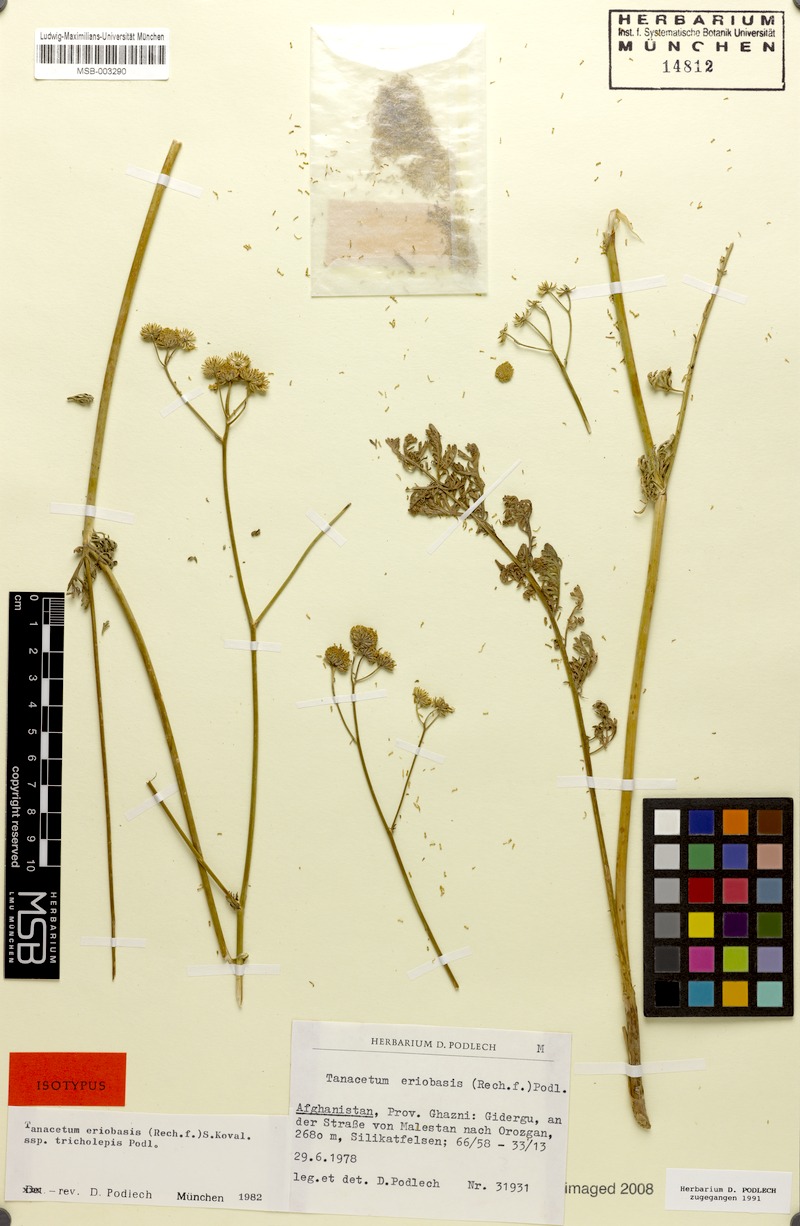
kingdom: Plantae
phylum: Tracheophyta
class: Magnoliopsida
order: Asterales
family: Asteraceae
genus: Tanacetopsis
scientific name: Tanacetopsis eriobasis
